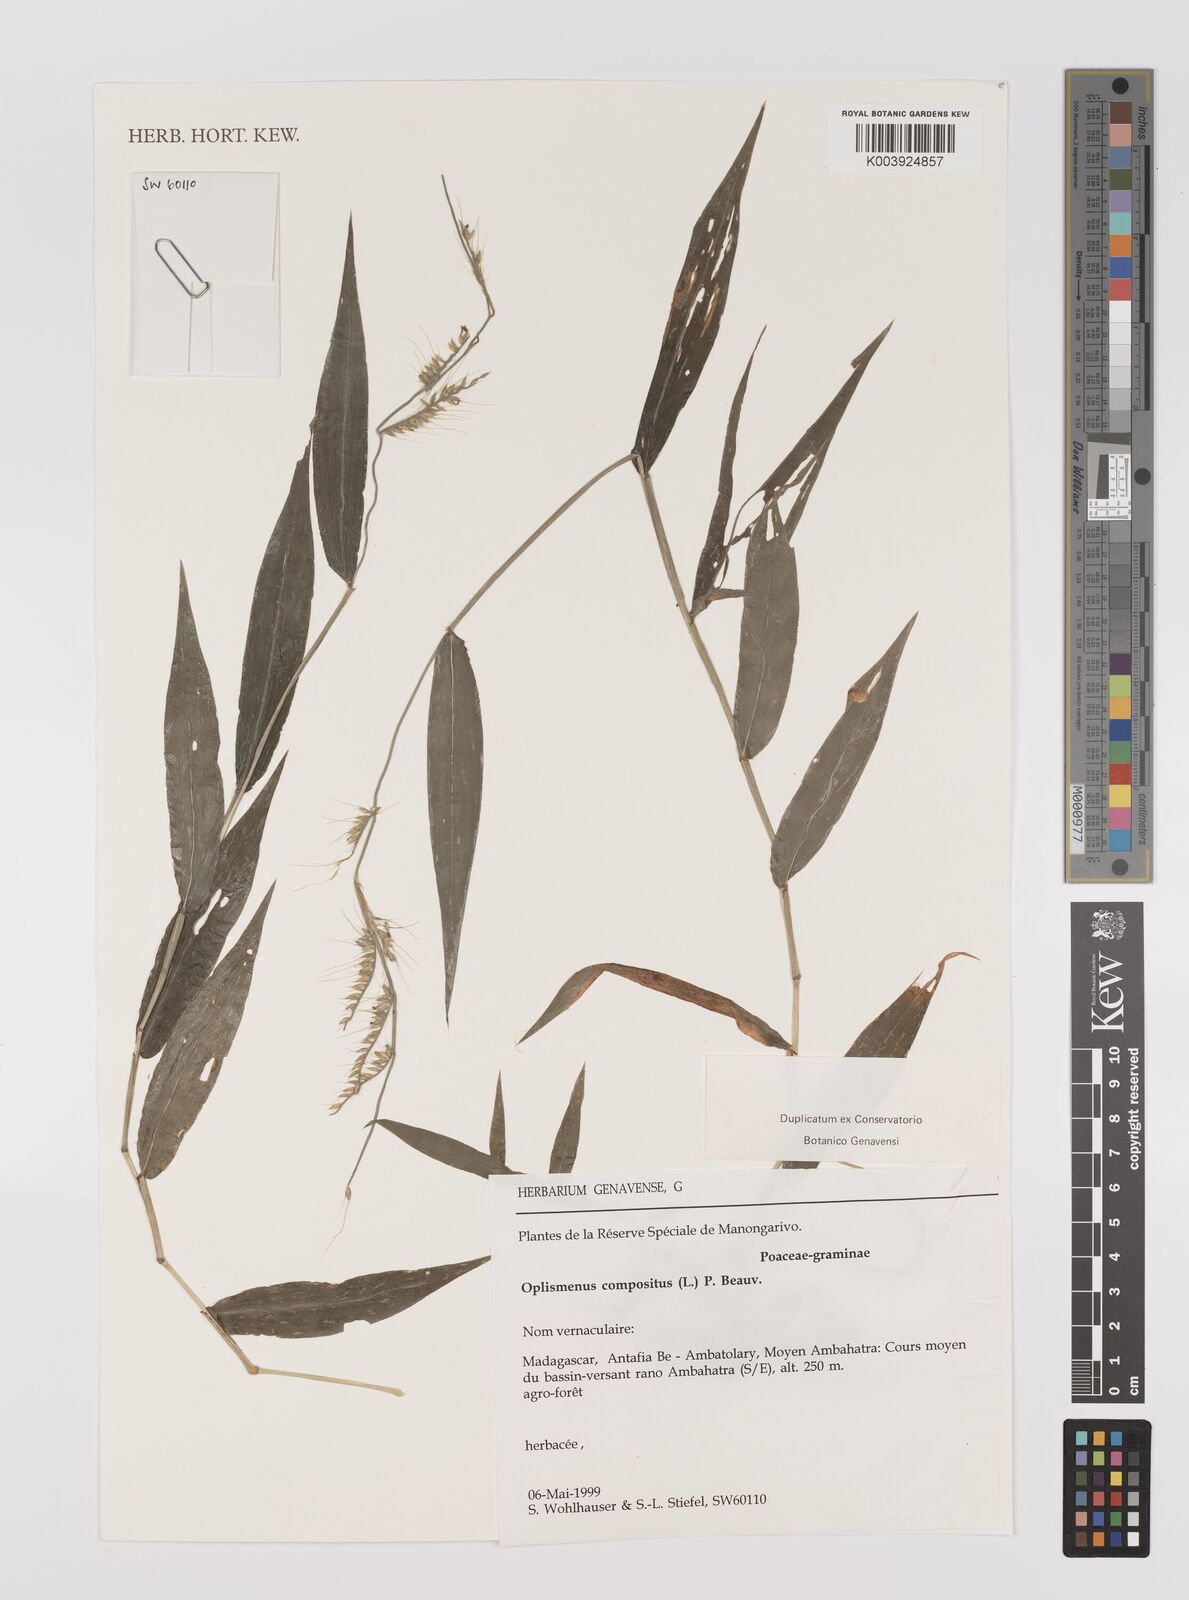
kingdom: Plantae
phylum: Tracheophyta
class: Liliopsida
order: Poales
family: Poaceae
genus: Oplismenus
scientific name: Oplismenus compositus
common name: Running mountain grass
